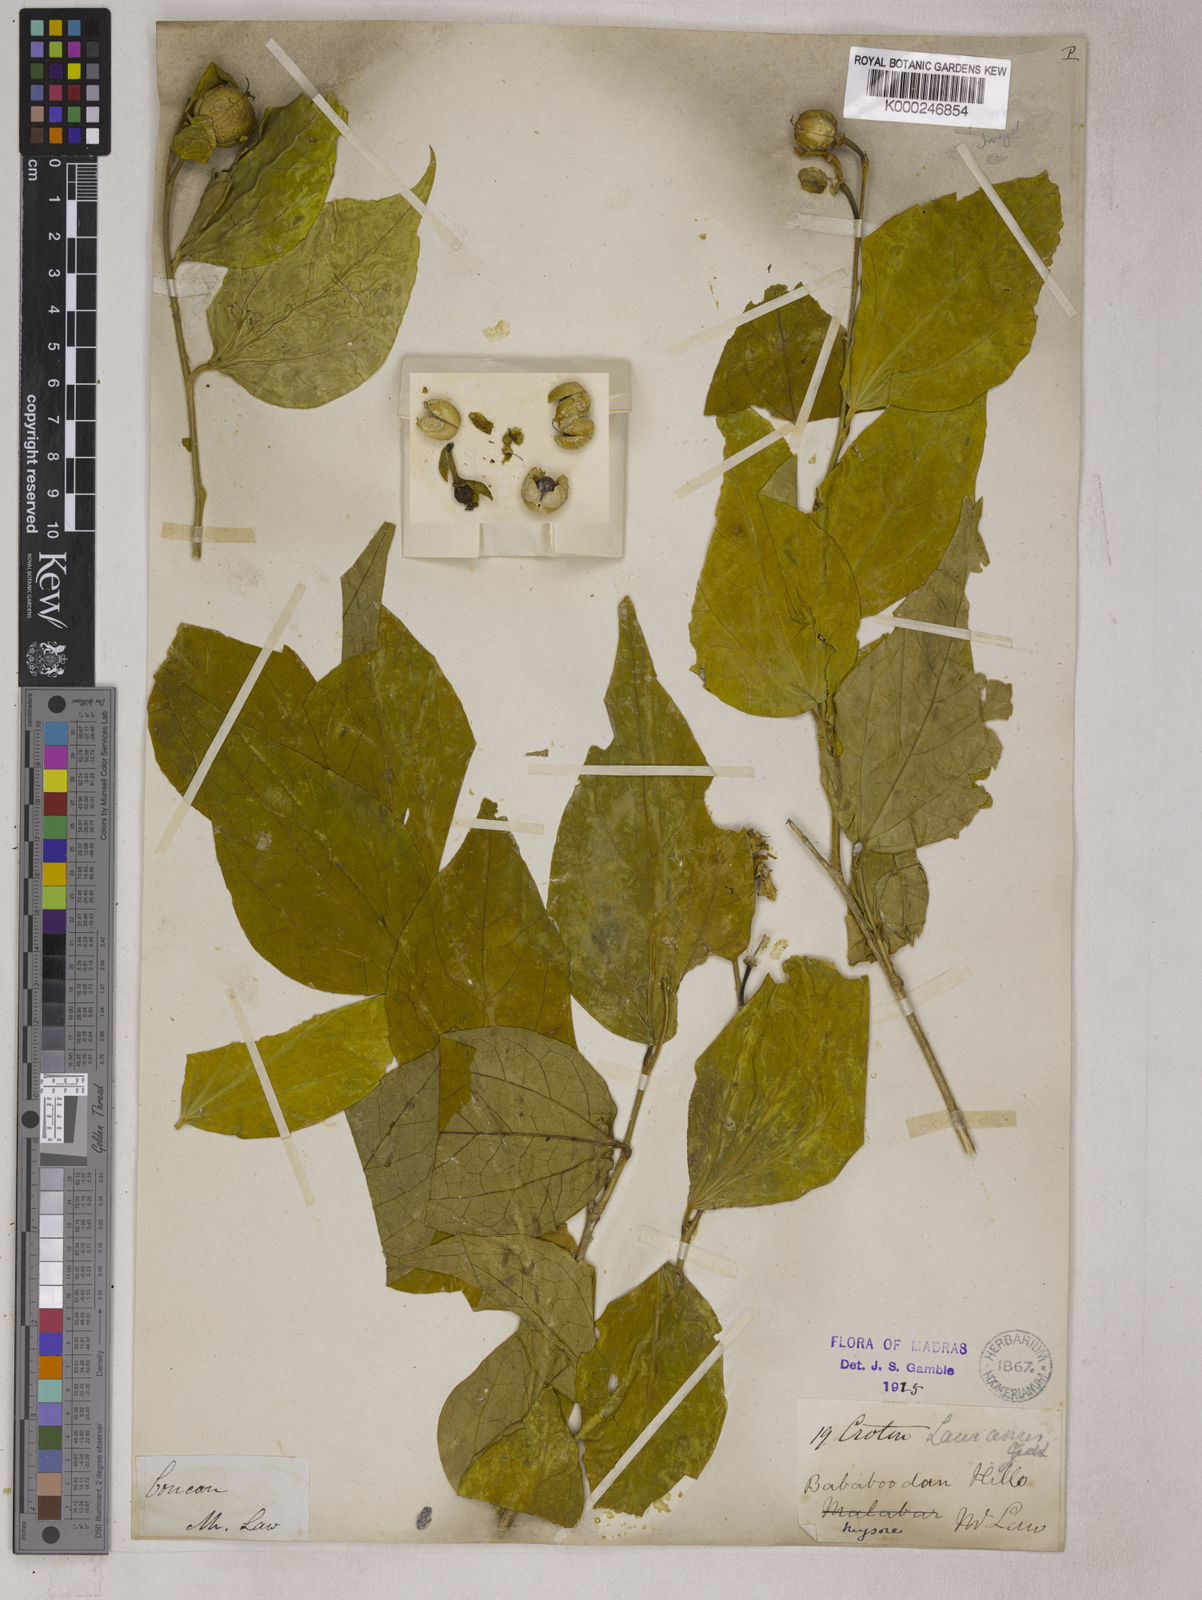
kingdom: Plantae
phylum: Tracheophyta
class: Magnoliopsida
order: Malpighiales
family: Euphorbiaceae
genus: Croton
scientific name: Croton lawianus
